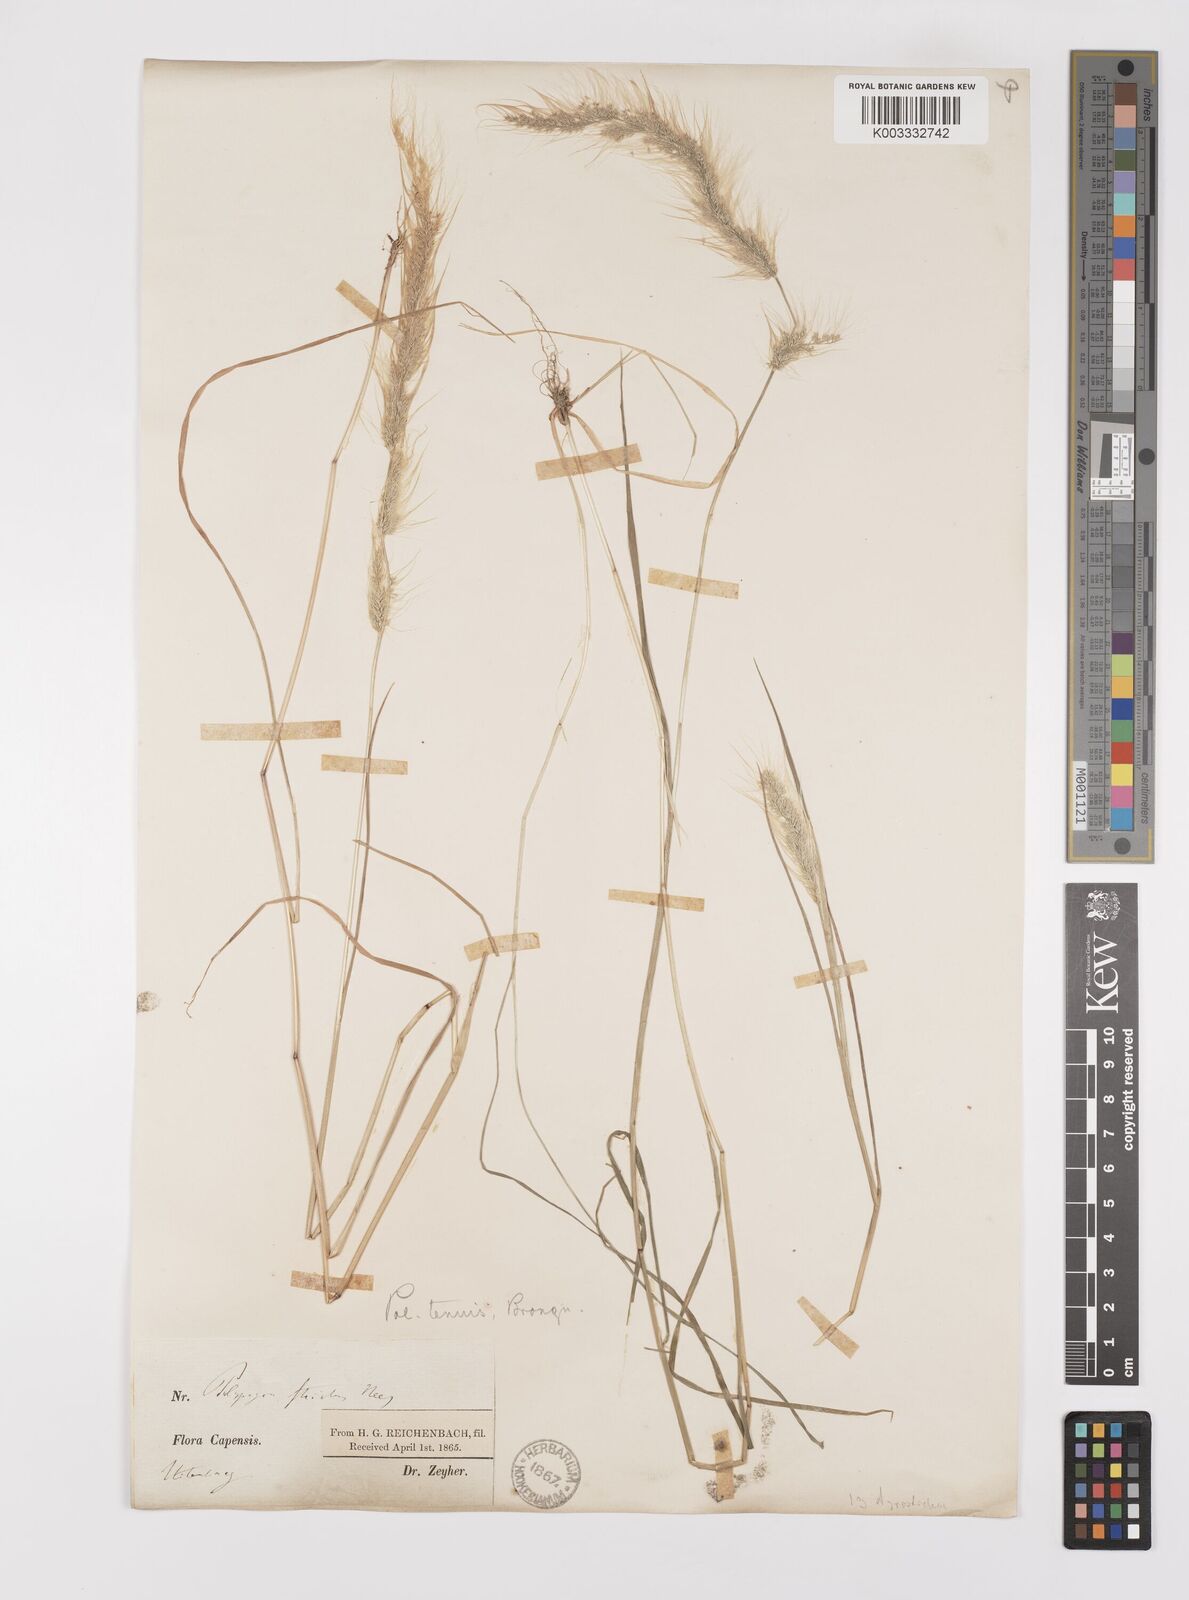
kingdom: Plantae
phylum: Tracheophyta
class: Liliopsida
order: Poales
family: Poaceae
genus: Polypogon
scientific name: Polypogon tenuis
